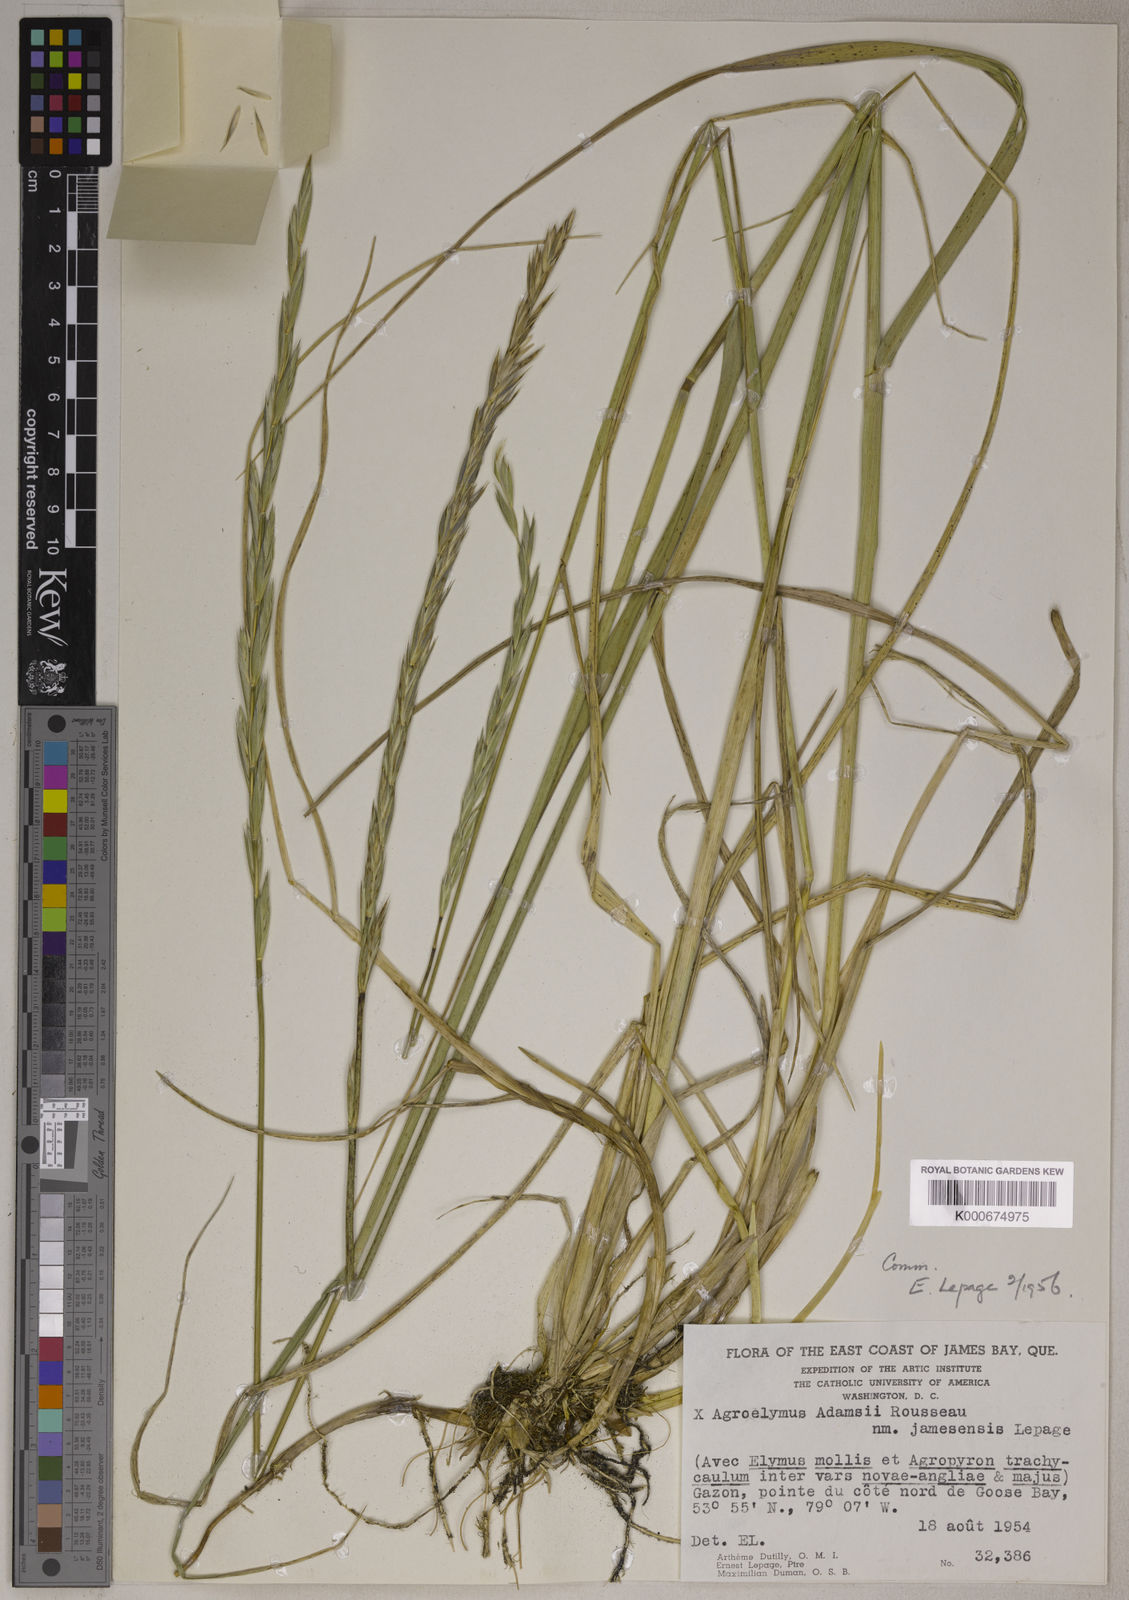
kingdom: Plantae
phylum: Tracheophyta
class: Liliopsida
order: Poales
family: Poaceae
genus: Elymus
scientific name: Elymus
